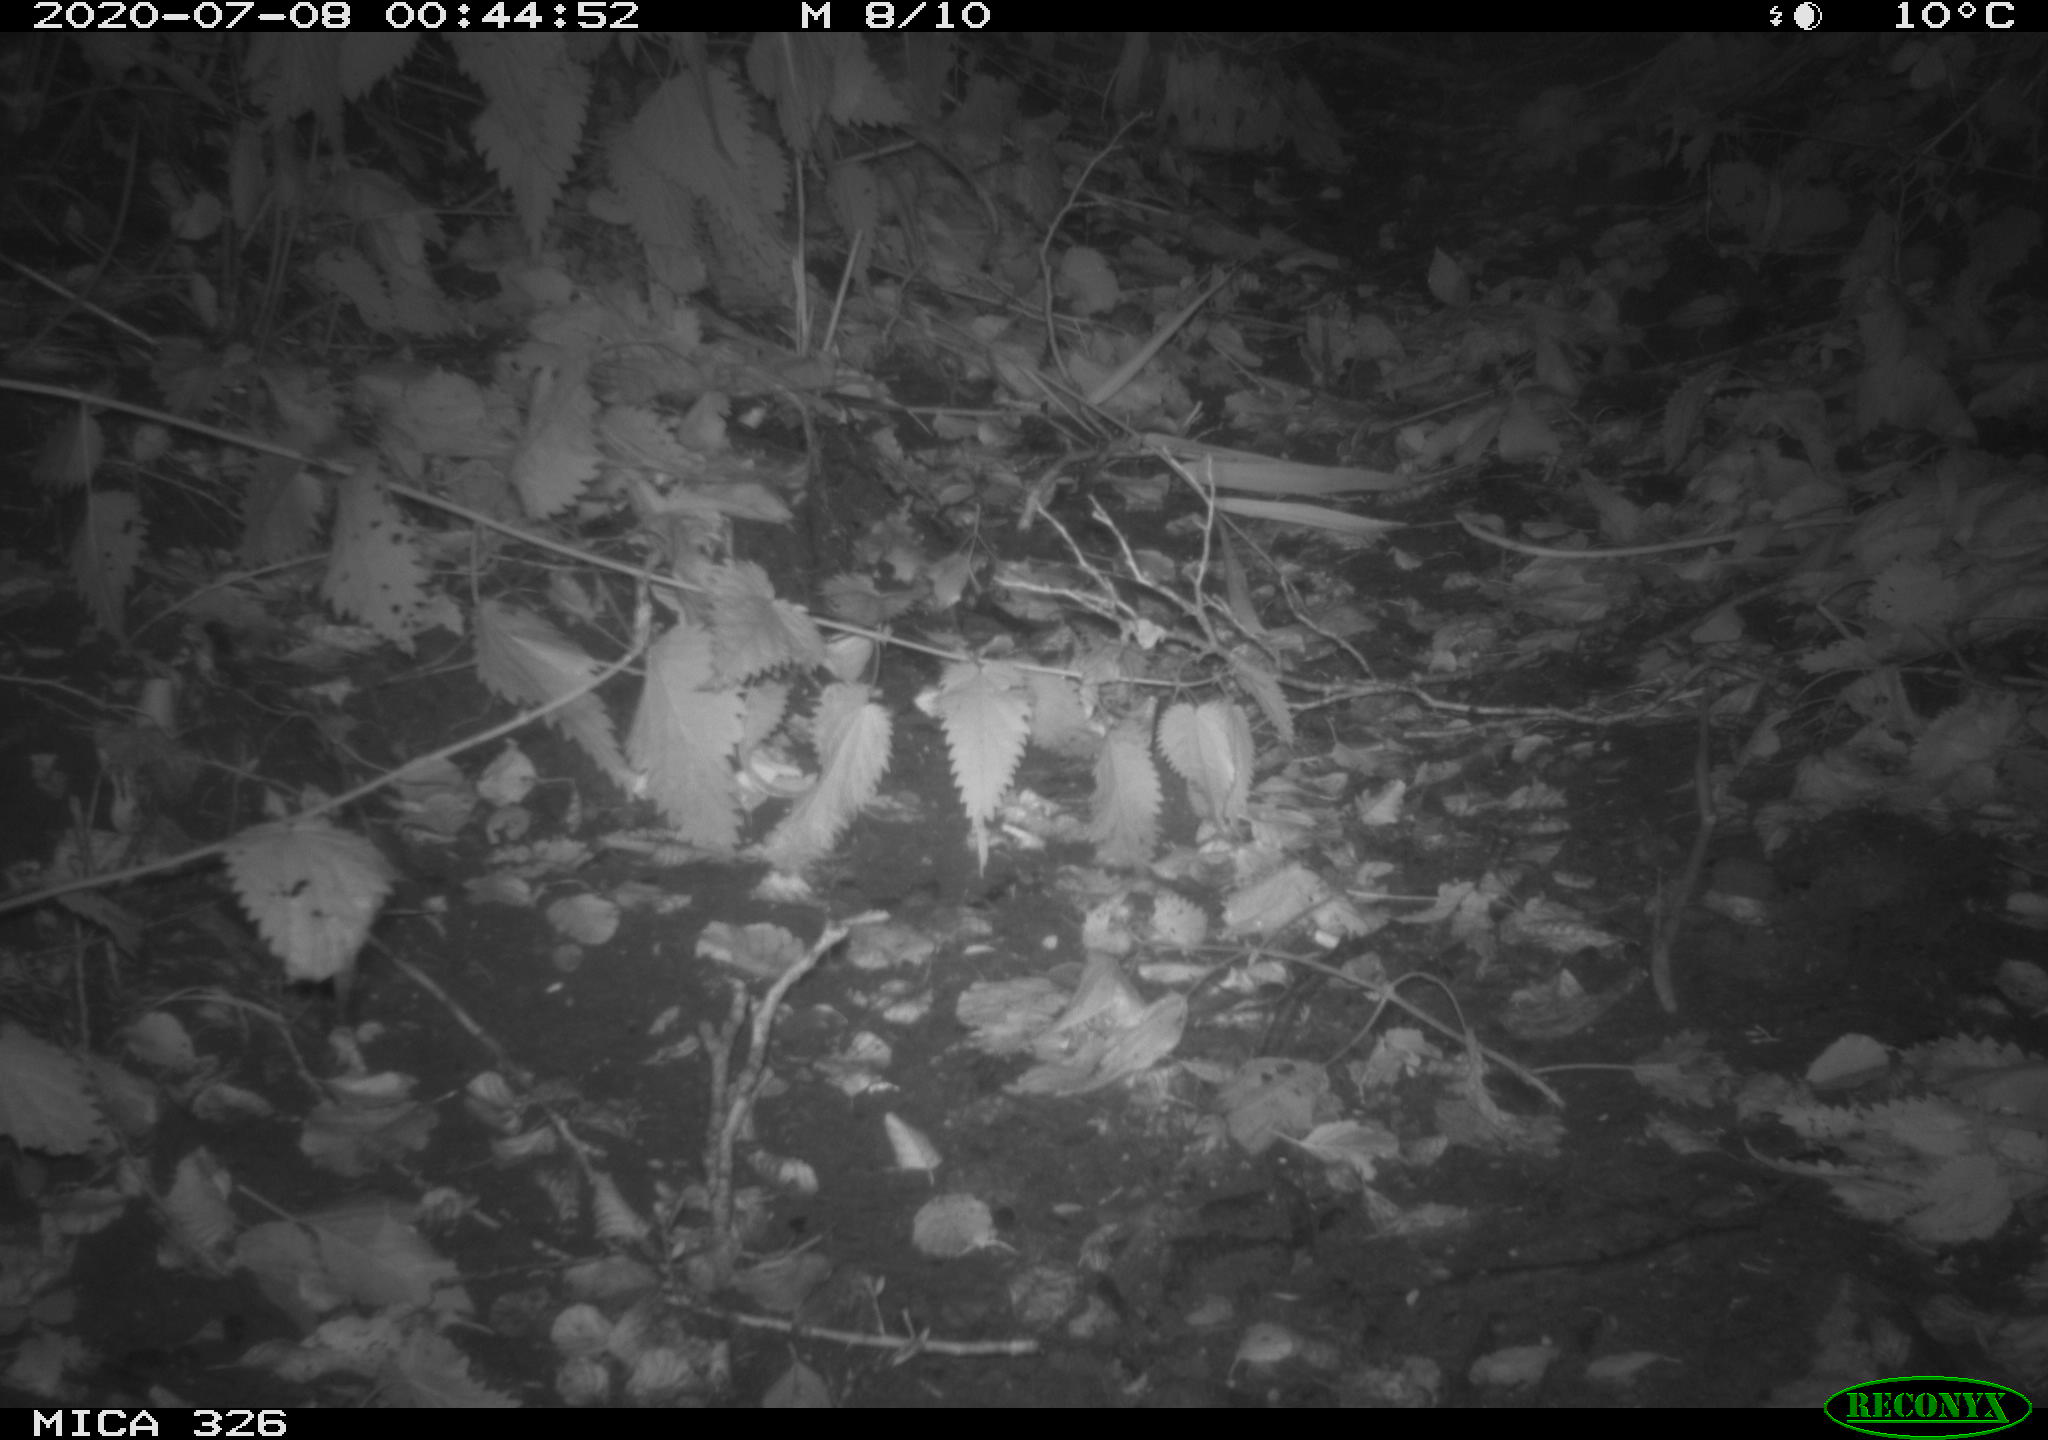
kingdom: Animalia
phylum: Chordata
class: Mammalia
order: Rodentia
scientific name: Rodentia
